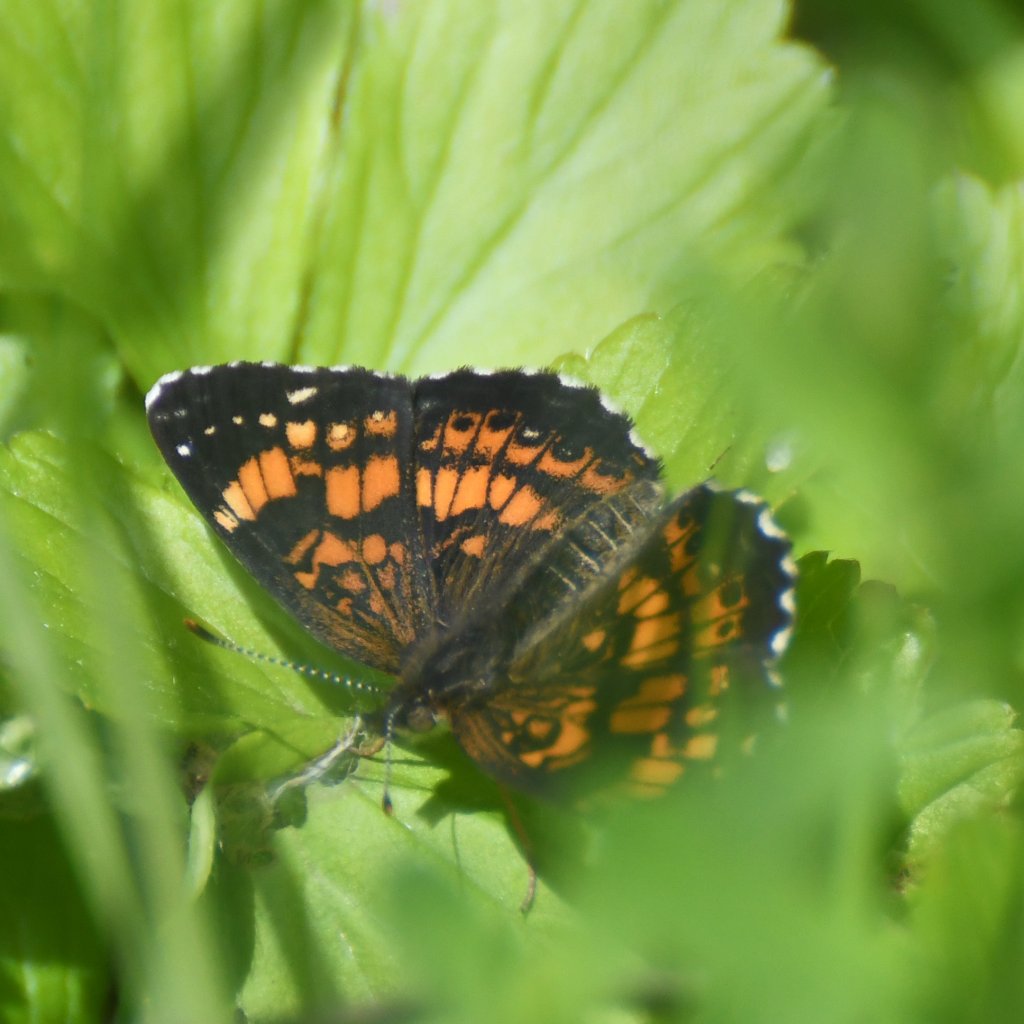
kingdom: Animalia
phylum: Arthropoda
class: Insecta
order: Lepidoptera
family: Nymphalidae
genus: Chlosyne
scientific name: Chlosyne nycteis
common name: Silvery Checkerspot
